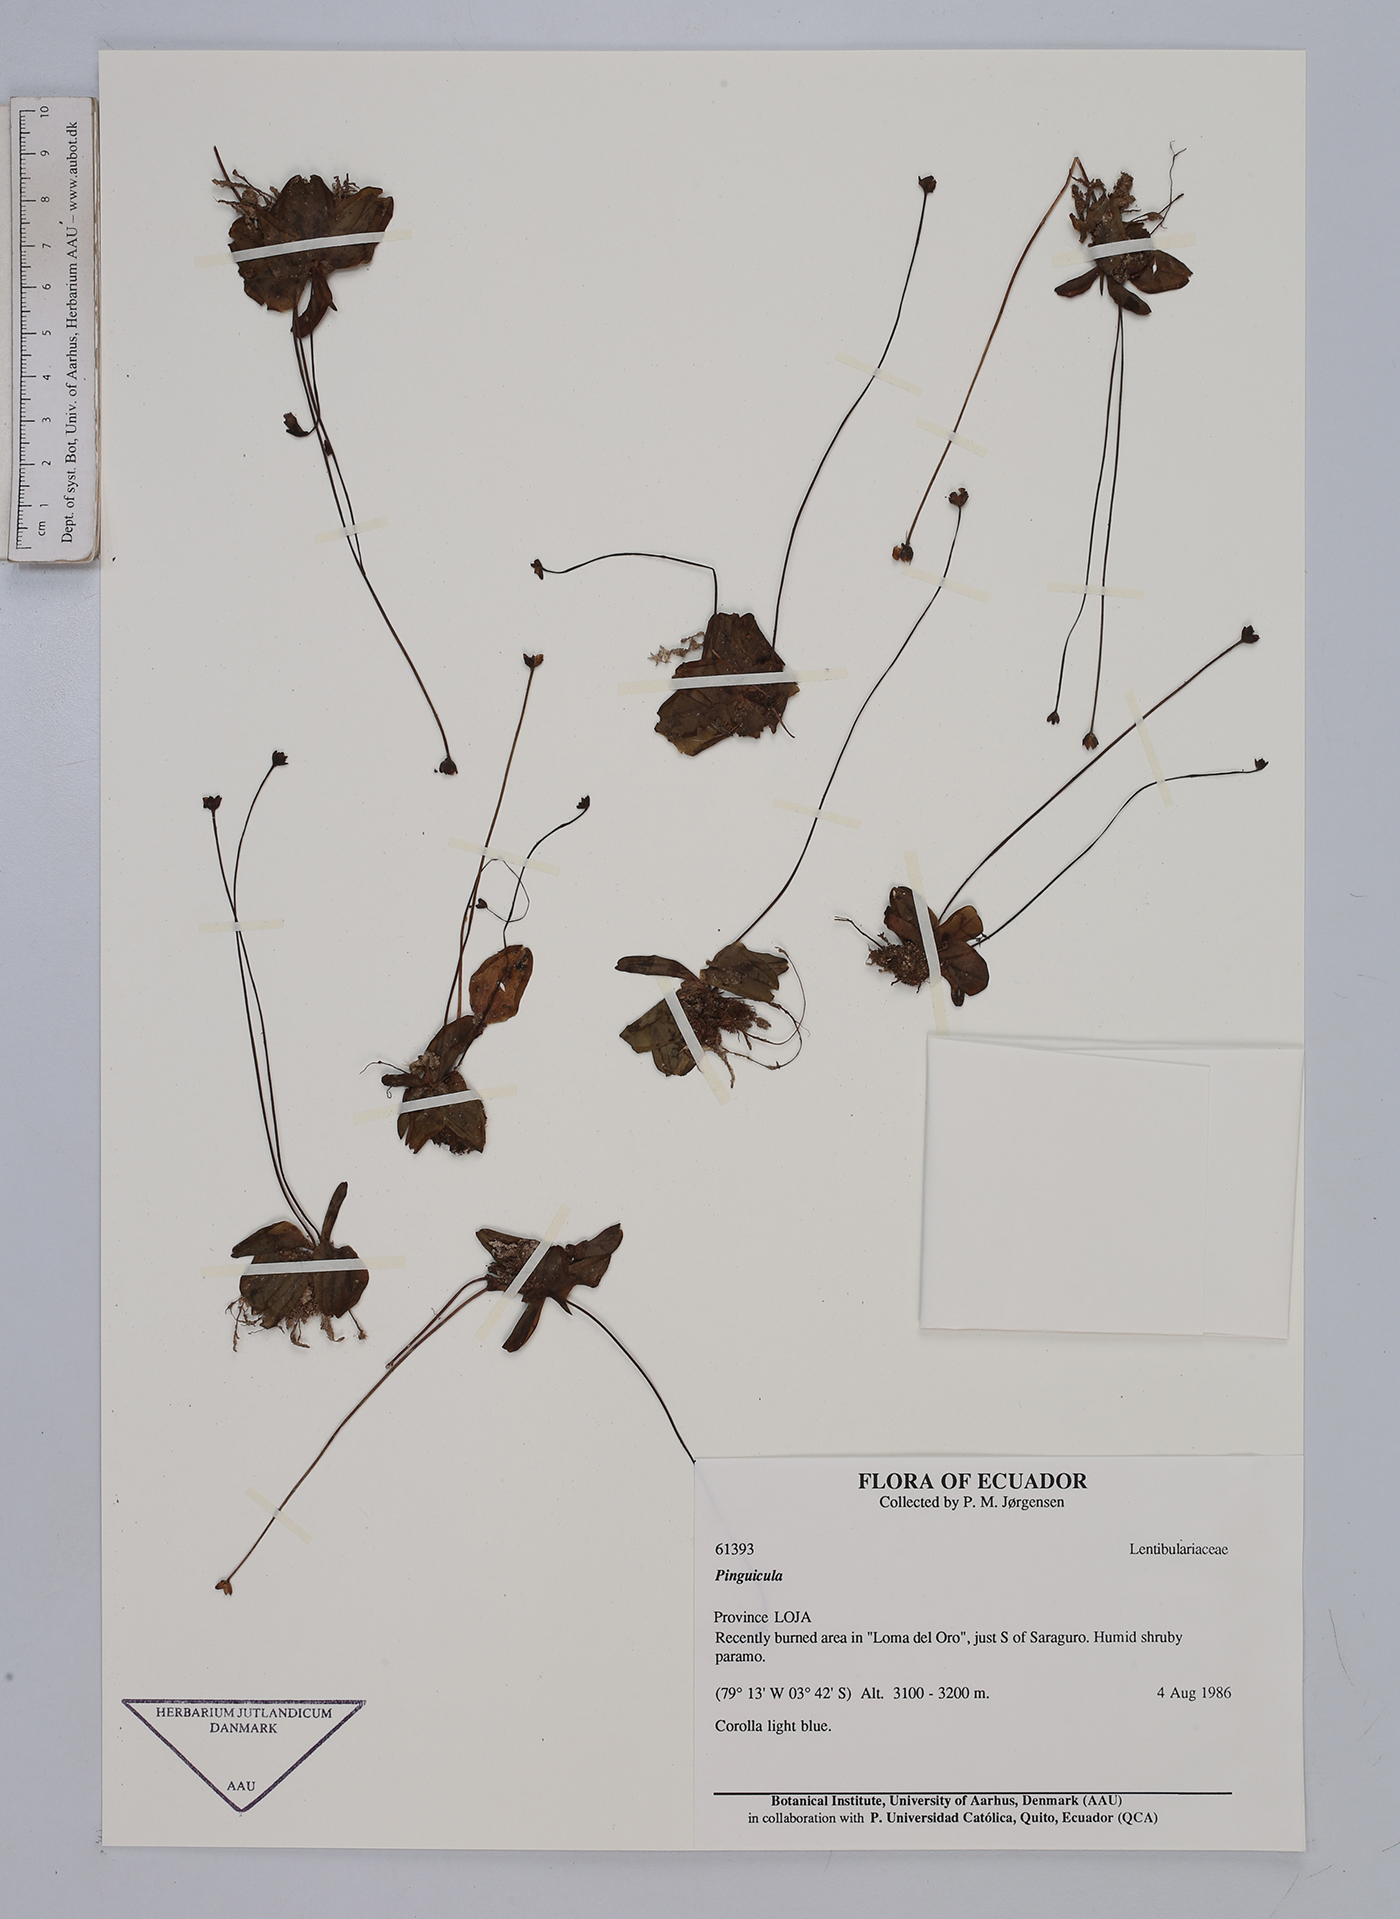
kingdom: Plantae
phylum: Tracheophyta
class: Magnoliopsida
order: Lamiales
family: Lentibulariaceae
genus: Pinguicula
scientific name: Pinguicula
